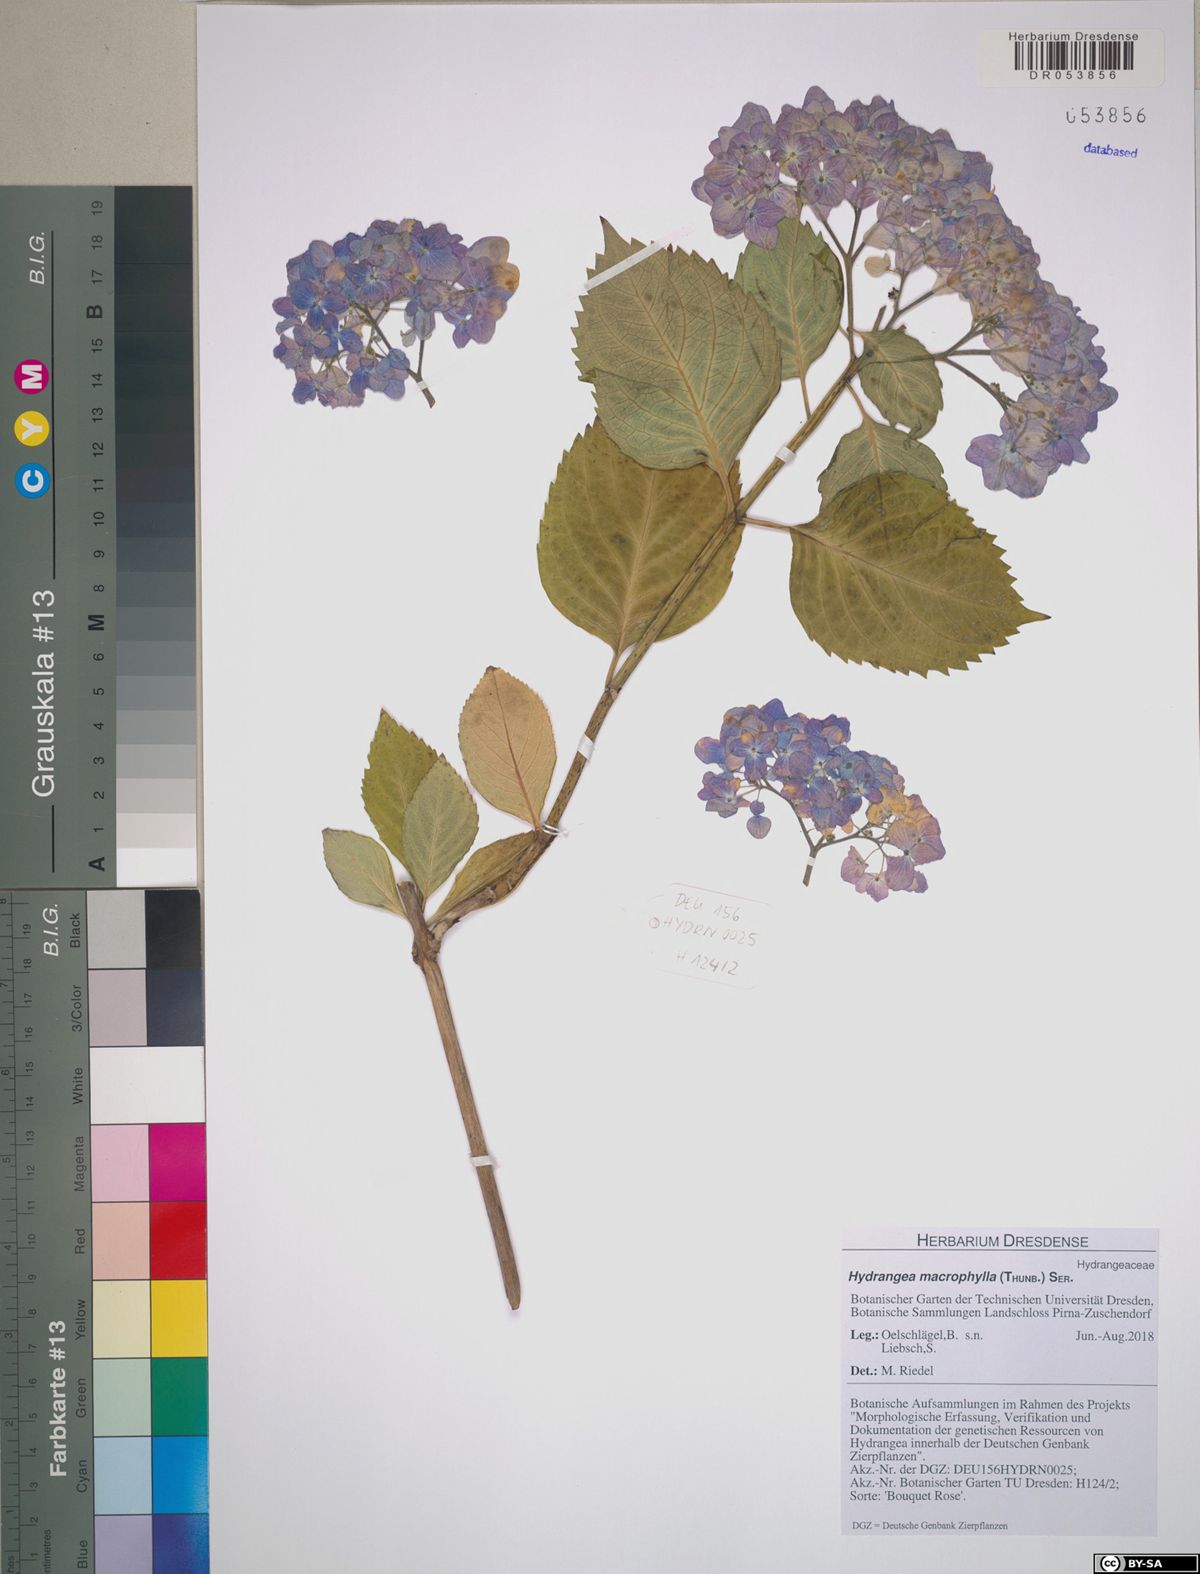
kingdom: Plantae
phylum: Tracheophyta
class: Magnoliopsida
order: Cornales
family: Hydrangeaceae
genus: Hydrangea
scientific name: Hydrangea macrophylla
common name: Hydrangea
